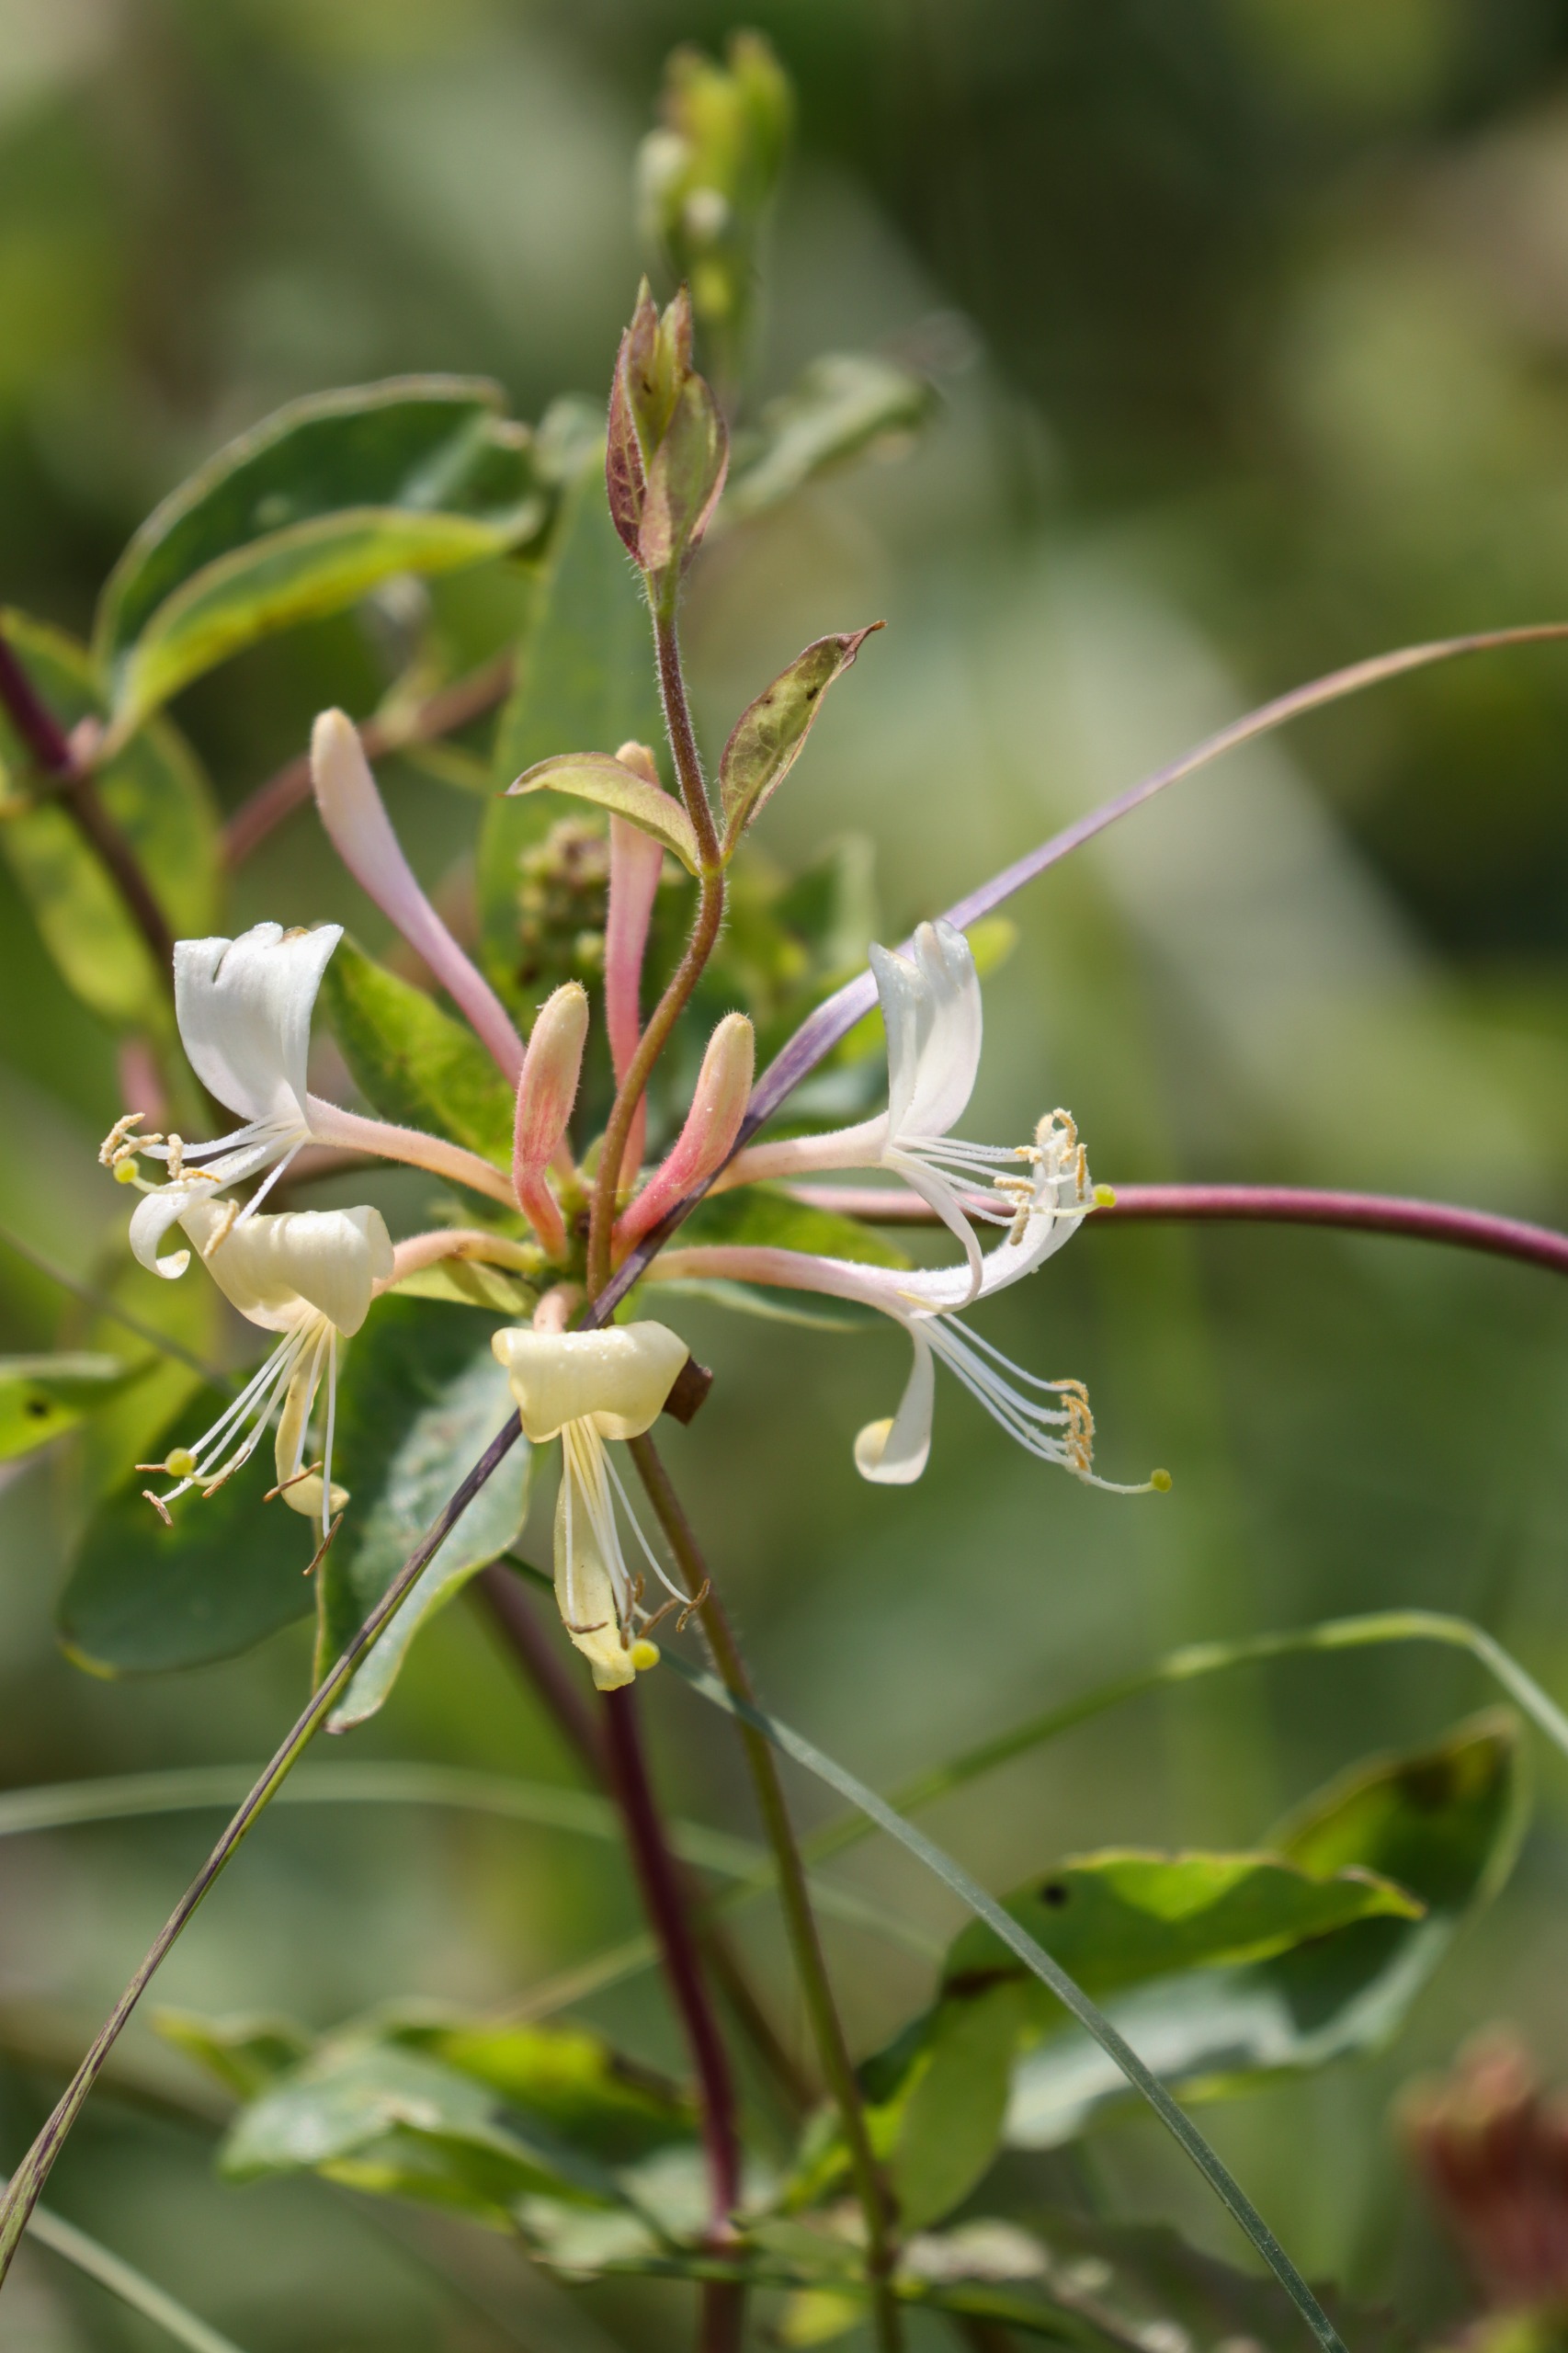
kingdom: Plantae
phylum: Tracheophyta
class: Magnoliopsida
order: Dipsacales
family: Caprifoliaceae
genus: Lonicera
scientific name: Lonicera periclymenum
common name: Almindelig gedeblad
